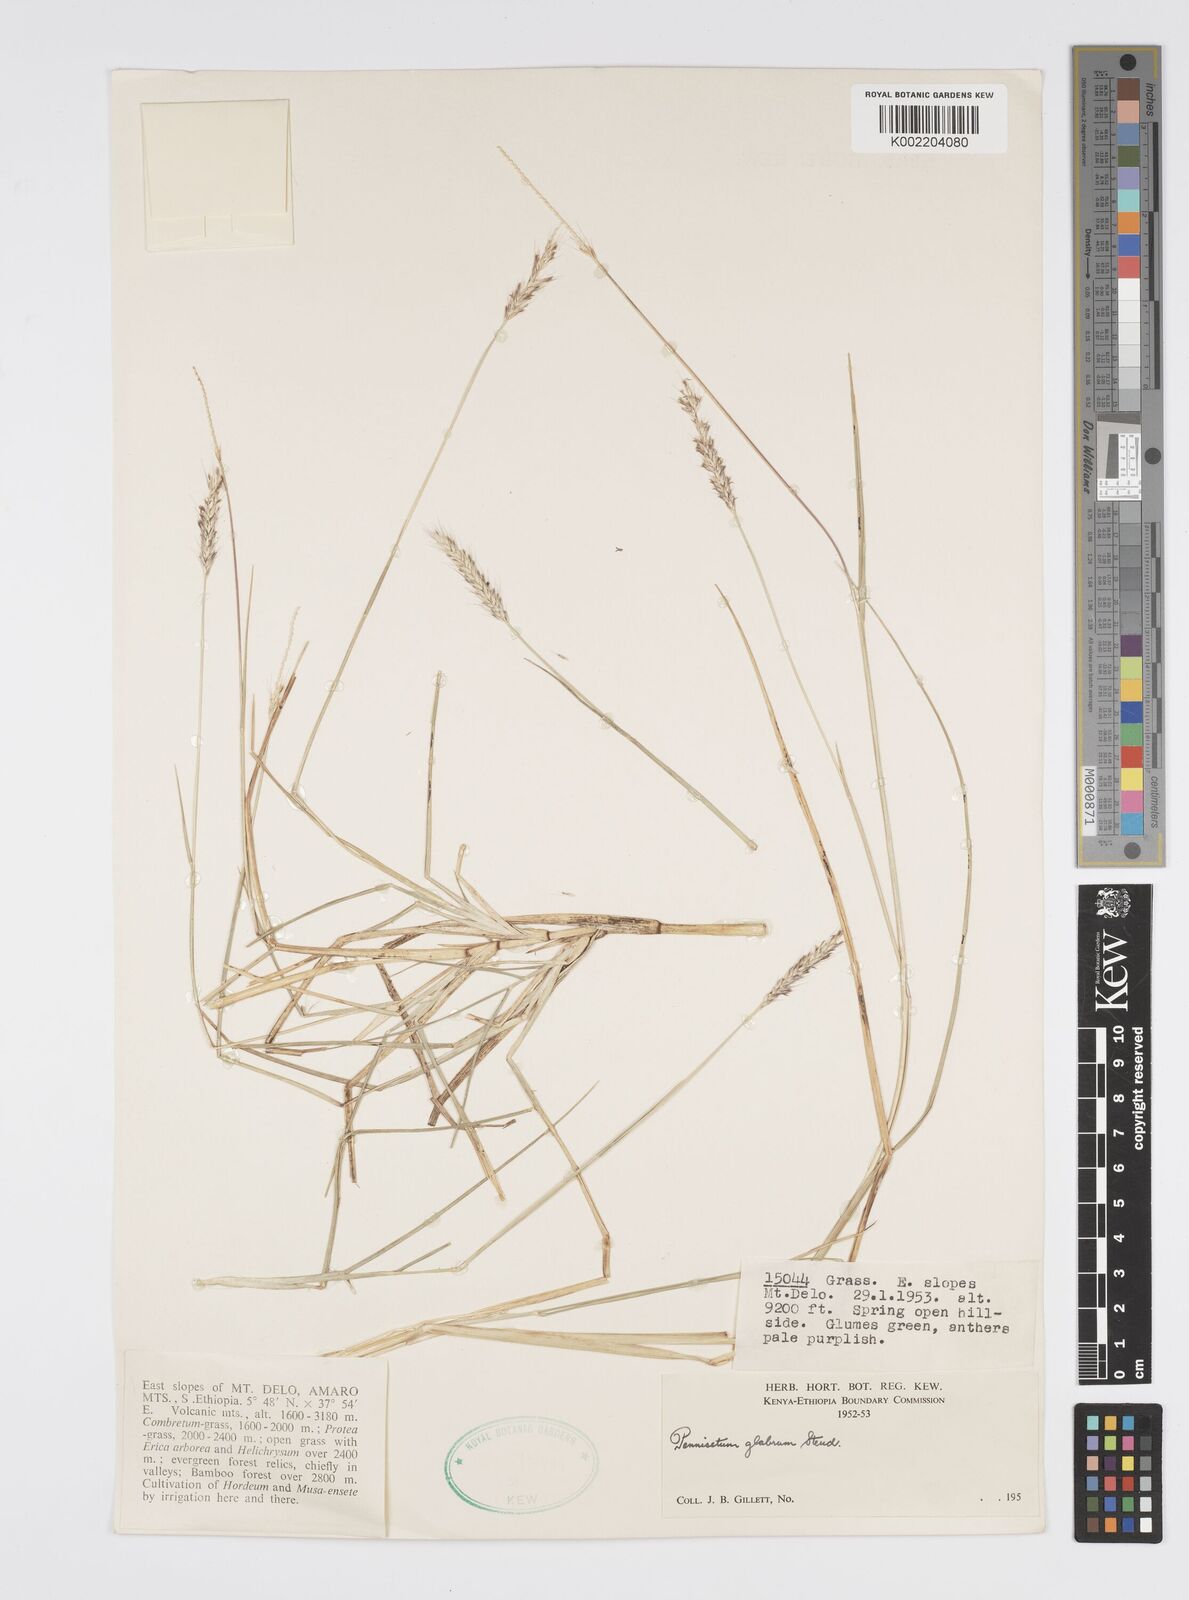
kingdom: Plantae
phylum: Tracheophyta
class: Liliopsida
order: Poales
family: Poaceae
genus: Cenchrus
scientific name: Cenchrus geniculatus
